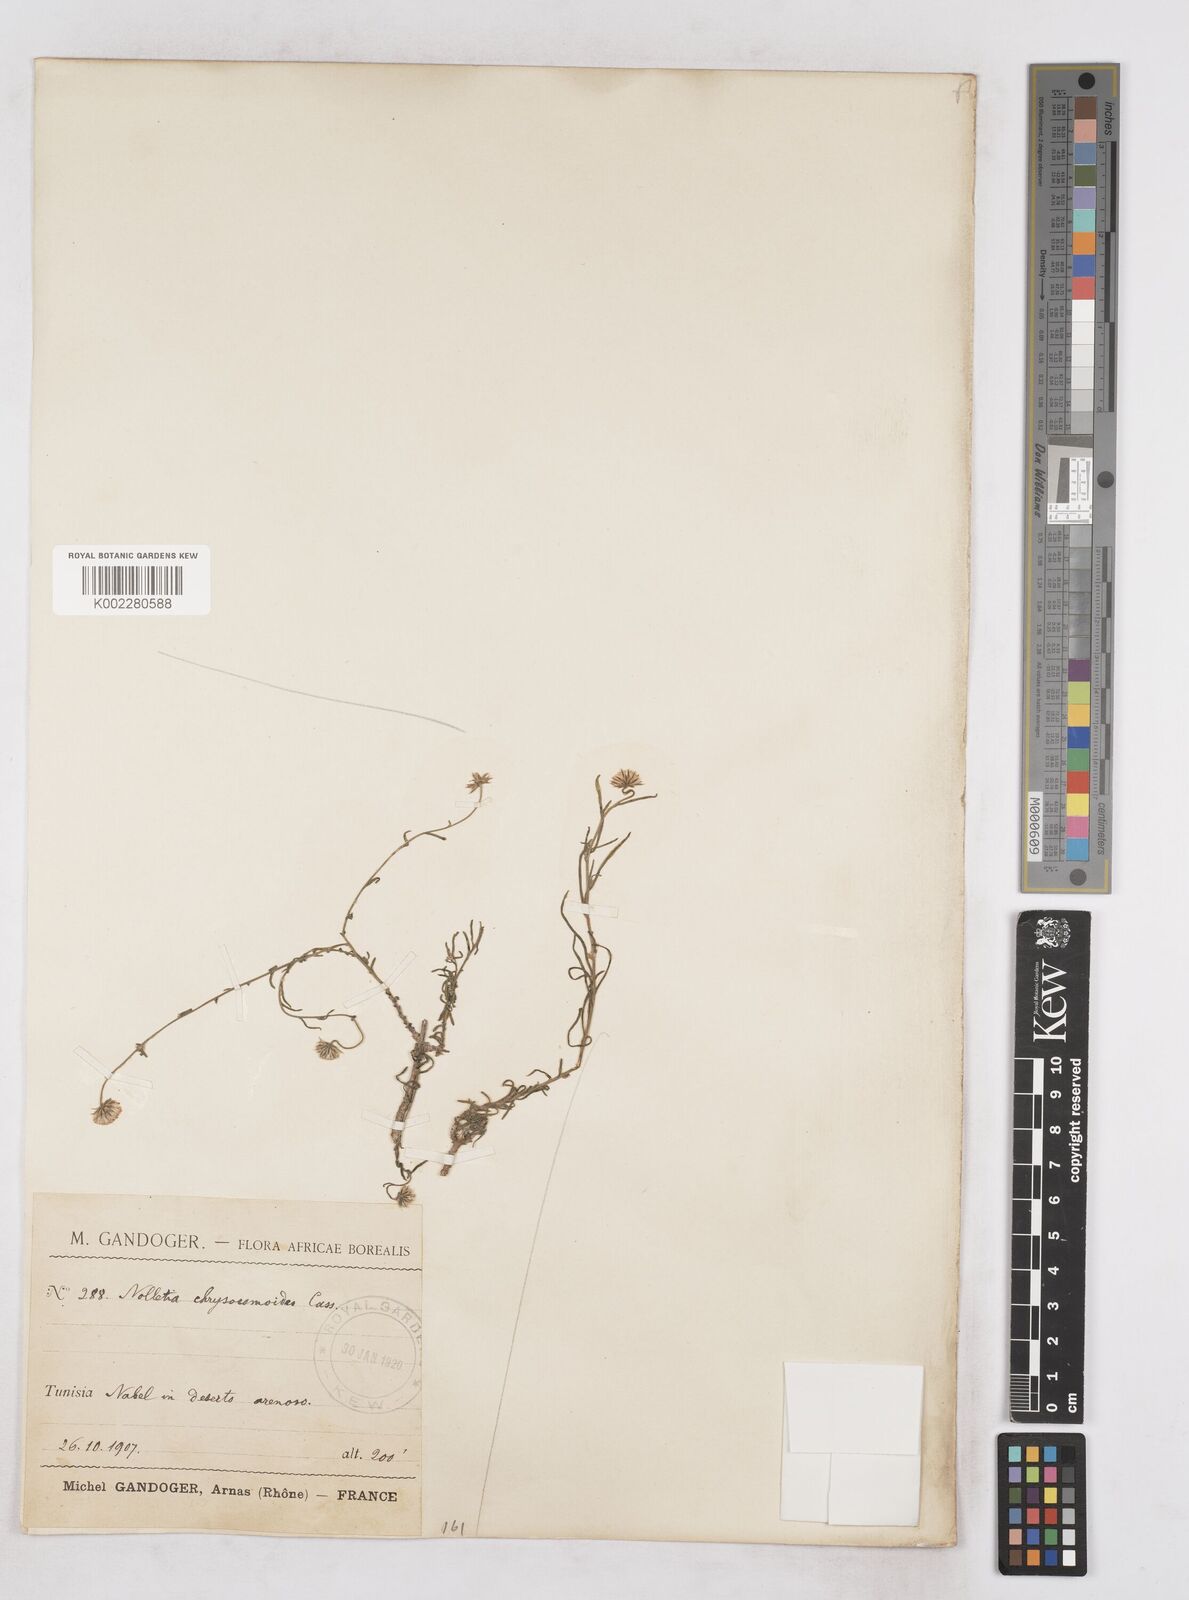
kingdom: Plantae
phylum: Tracheophyta
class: Magnoliopsida
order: Asterales
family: Asteraceae
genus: Nolletia
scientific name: Nolletia chrysocomoides
